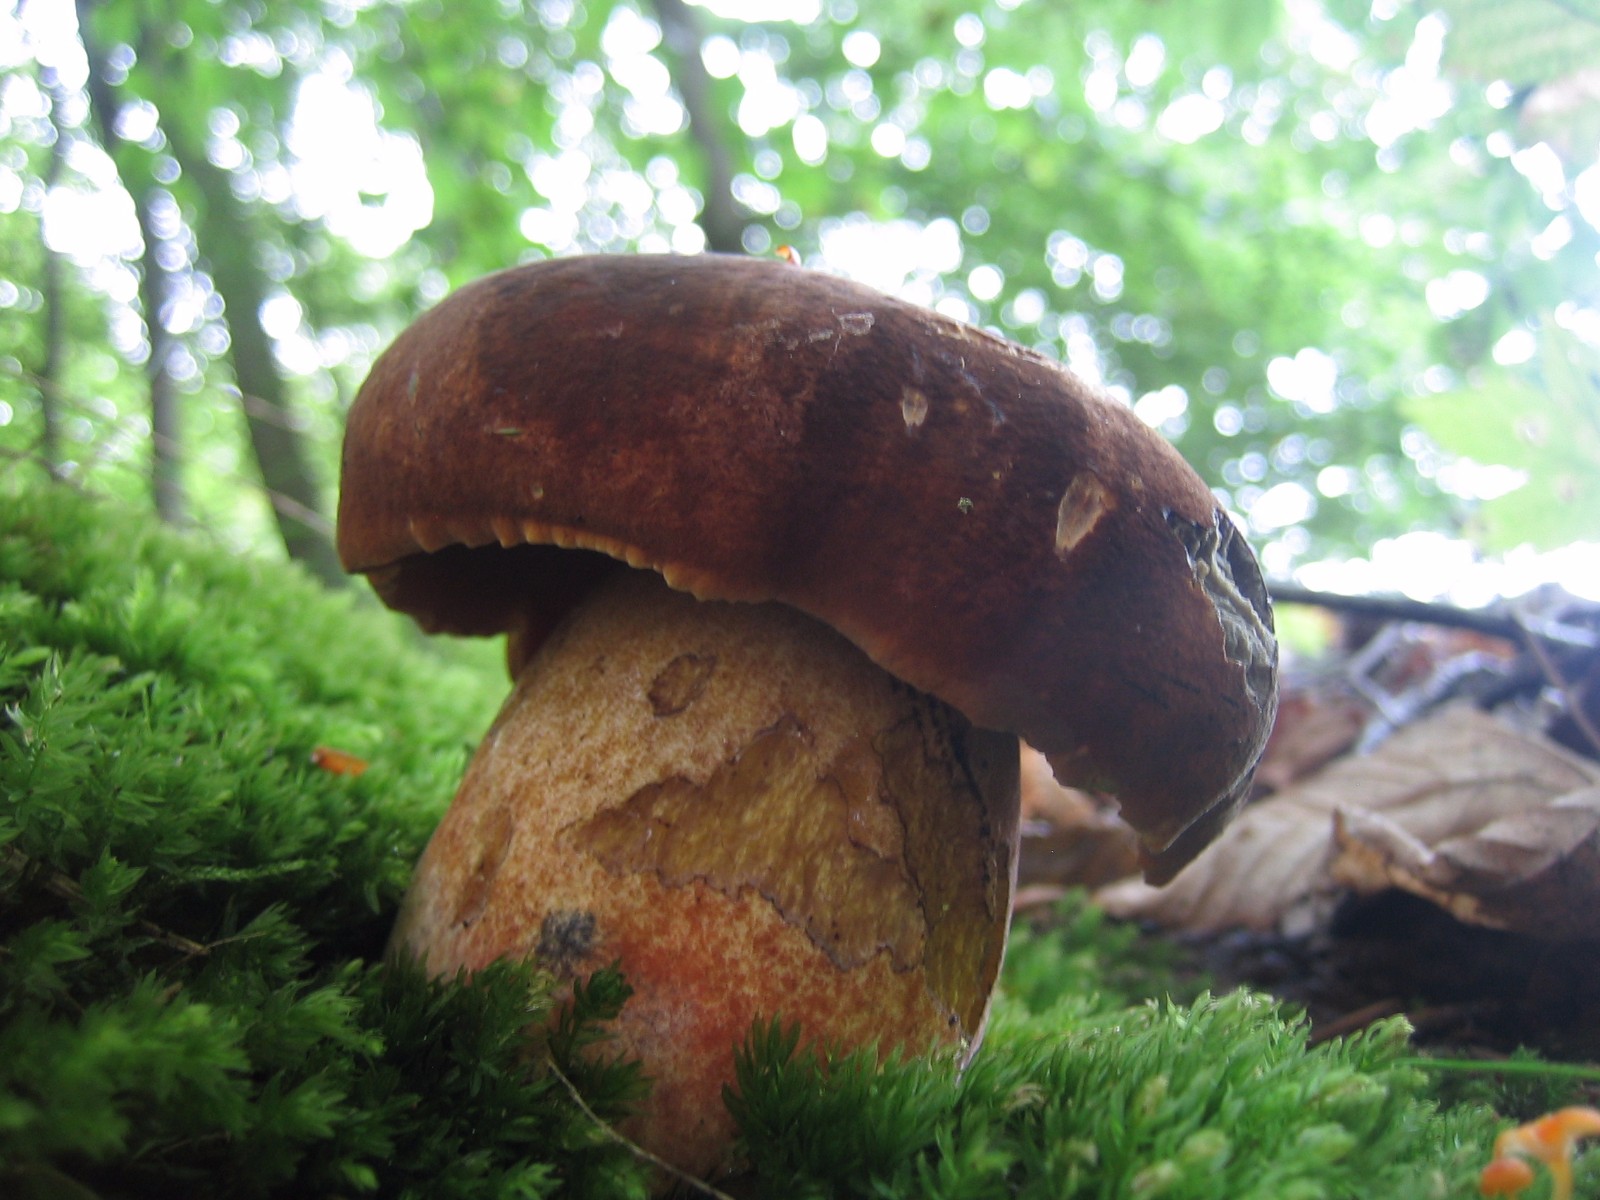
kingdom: Fungi
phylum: Basidiomycota
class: Agaricomycetes
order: Boletales
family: Boletaceae
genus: Neoboletus
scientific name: Neoboletus erythropus
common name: punktstokket indigorørhat
